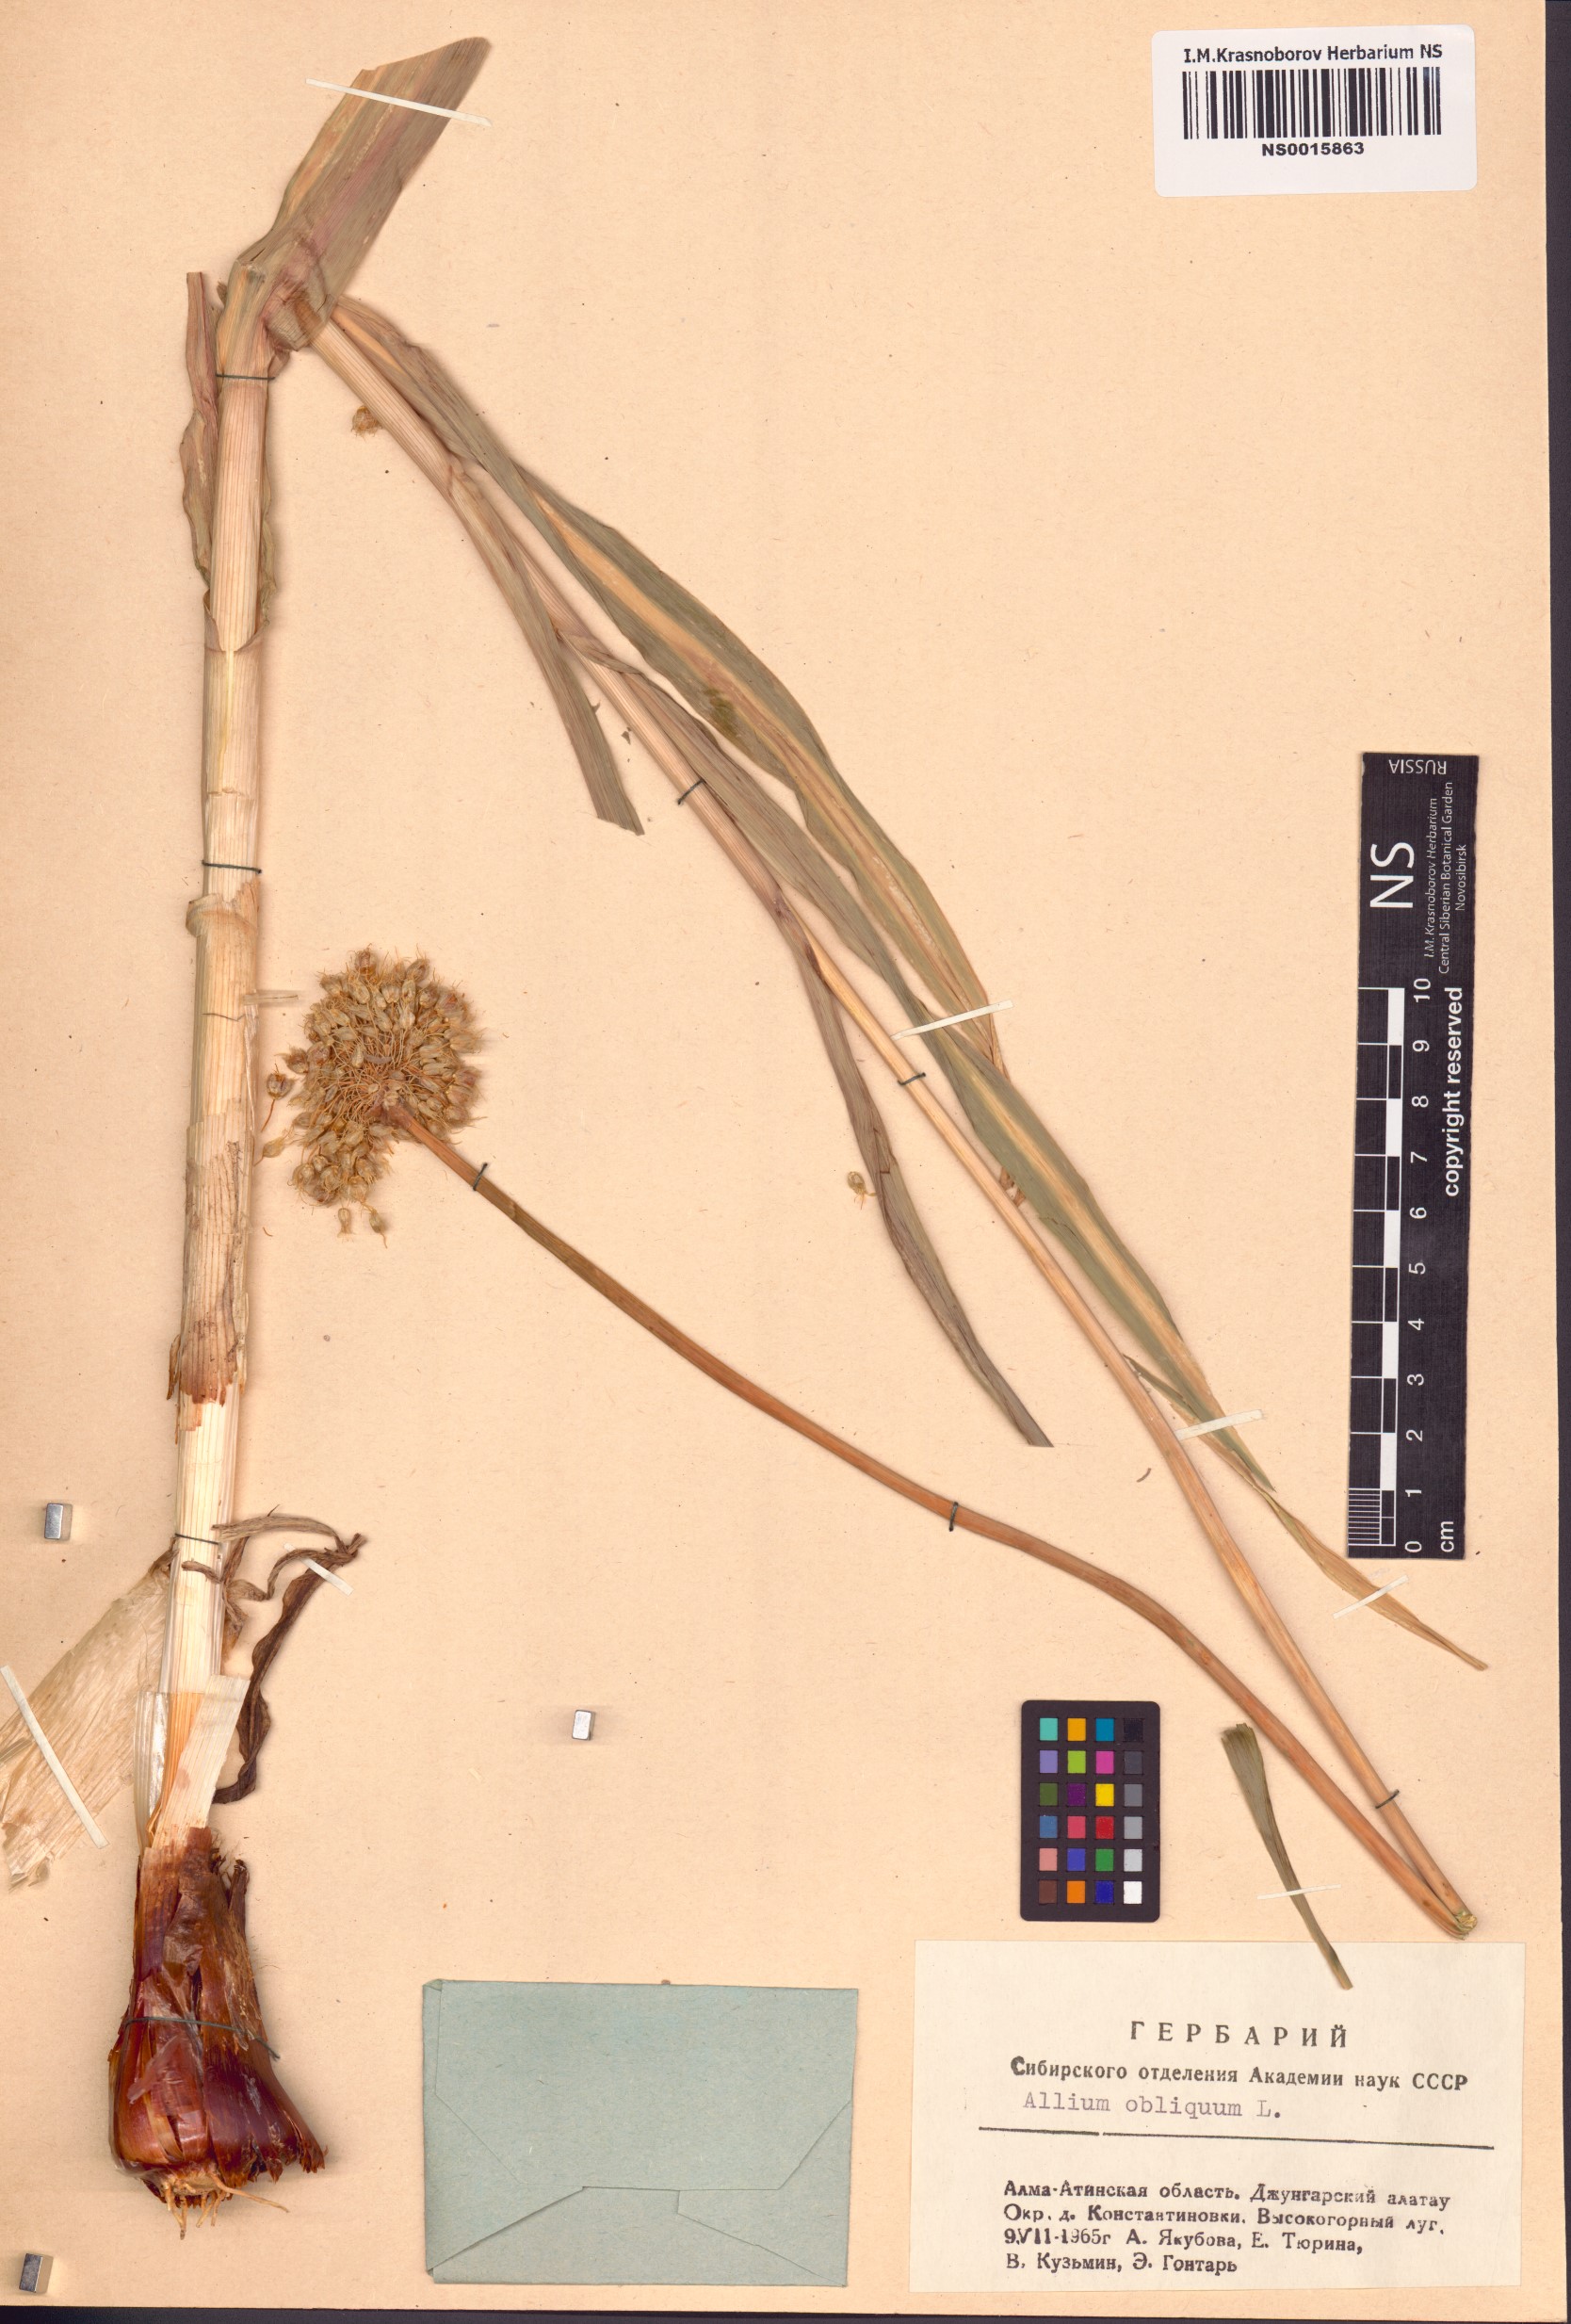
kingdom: Plantae
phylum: Tracheophyta
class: Liliopsida
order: Asparagales
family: Amaryllidaceae
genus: Allium
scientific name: Allium obliquum
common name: Oblique onion
